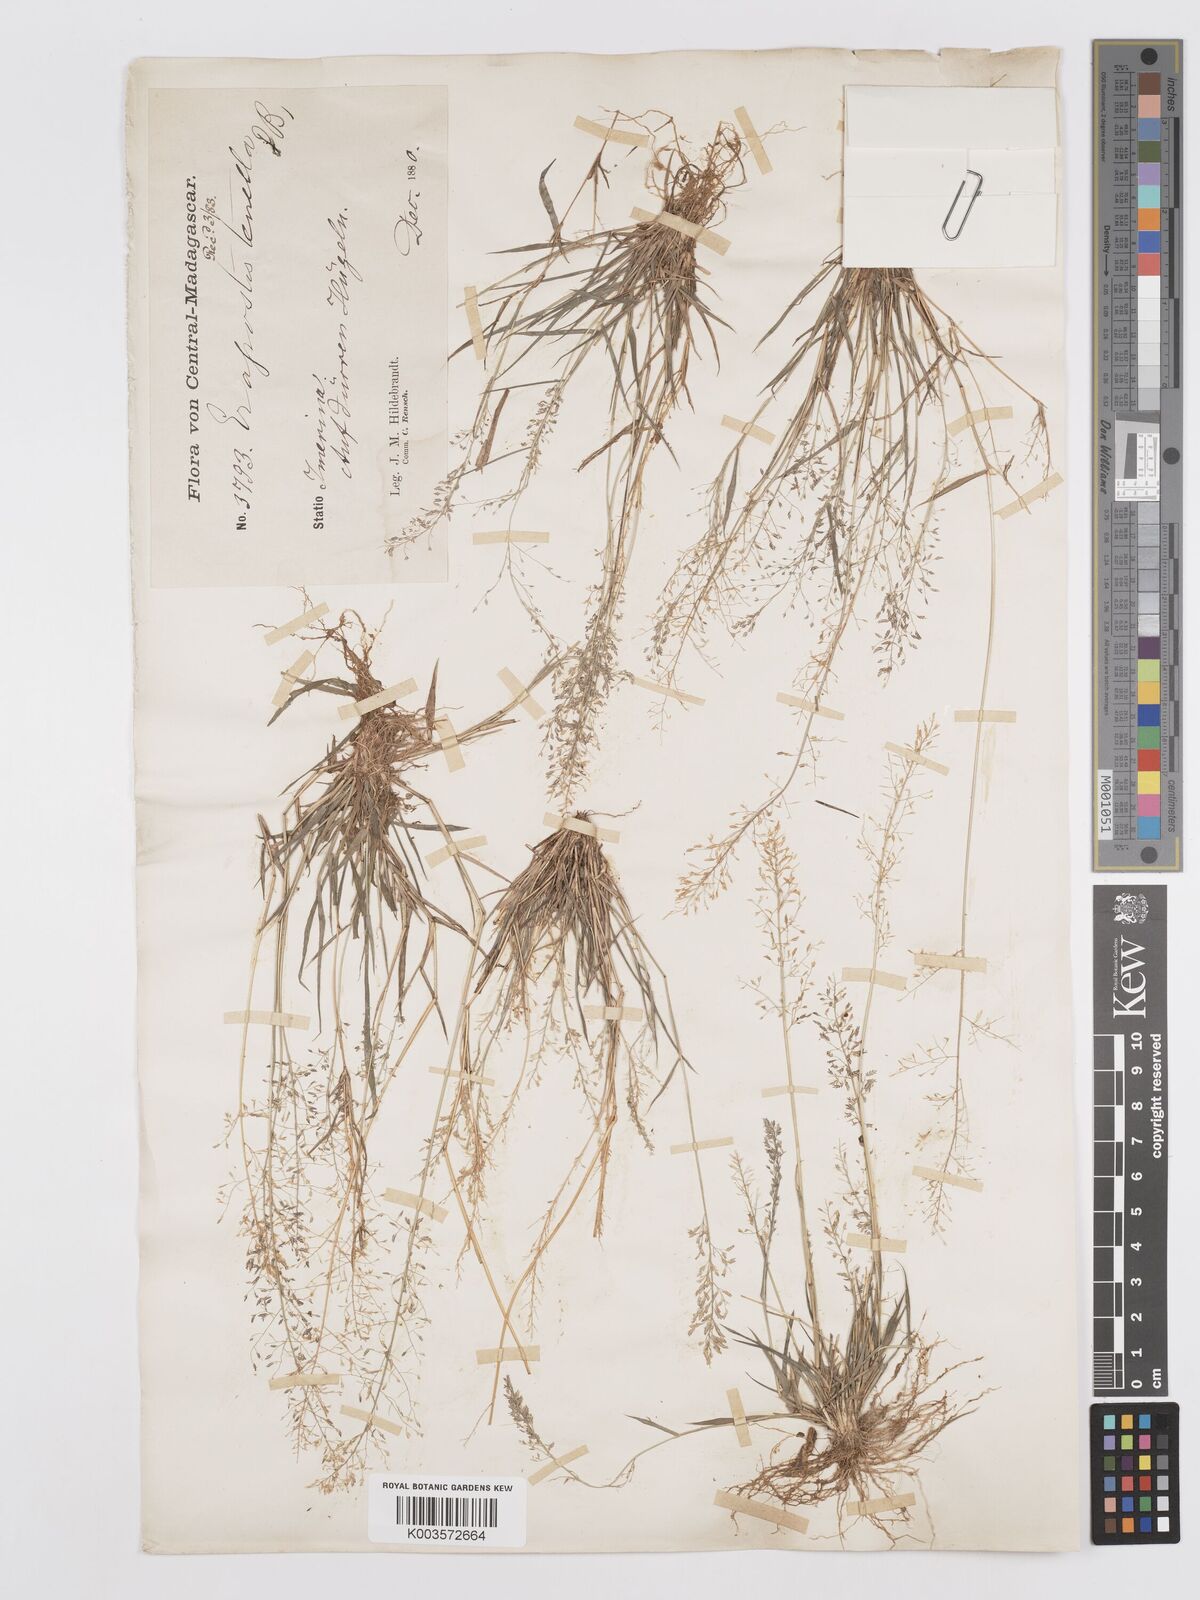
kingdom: Plantae
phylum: Tracheophyta
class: Liliopsida
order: Poales
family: Poaceae
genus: Eragrostis
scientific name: Eragrostis tenella
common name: Japanese lovegrass
